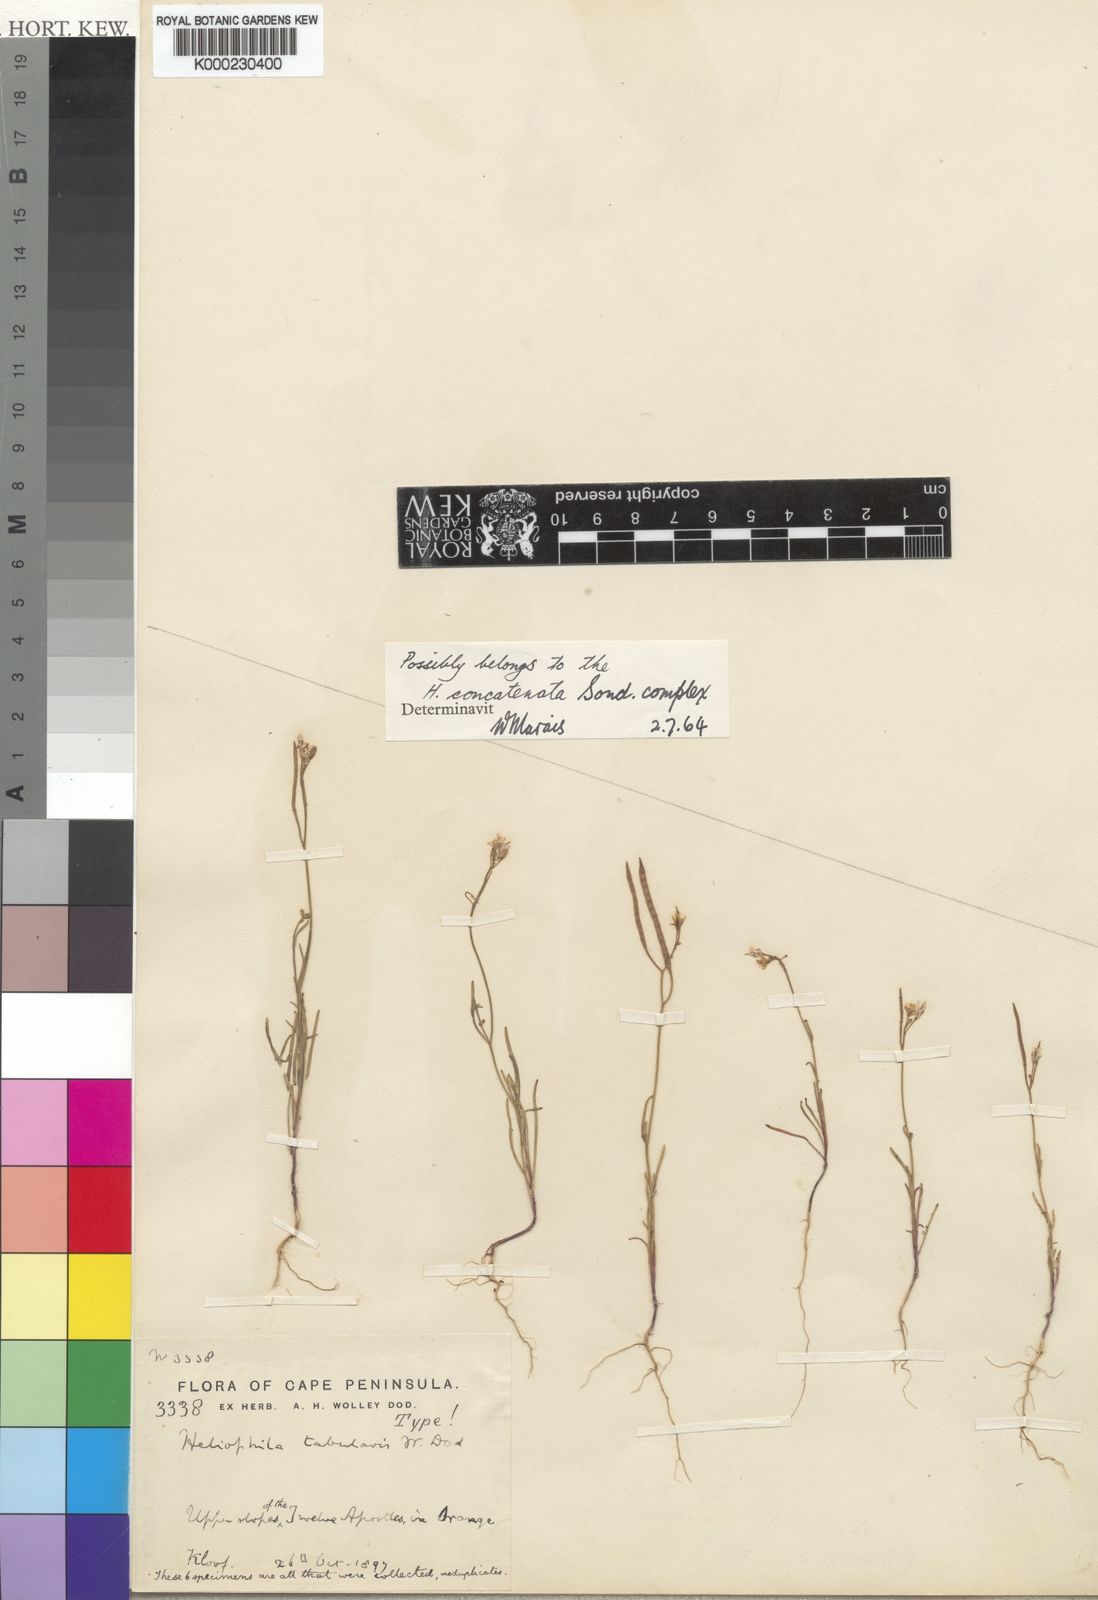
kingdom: Plantae
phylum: Tracheophyta
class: Magnoliopsida
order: Brassicales
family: Brassicaceae
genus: Heliophila
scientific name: Heliophila tabularis
